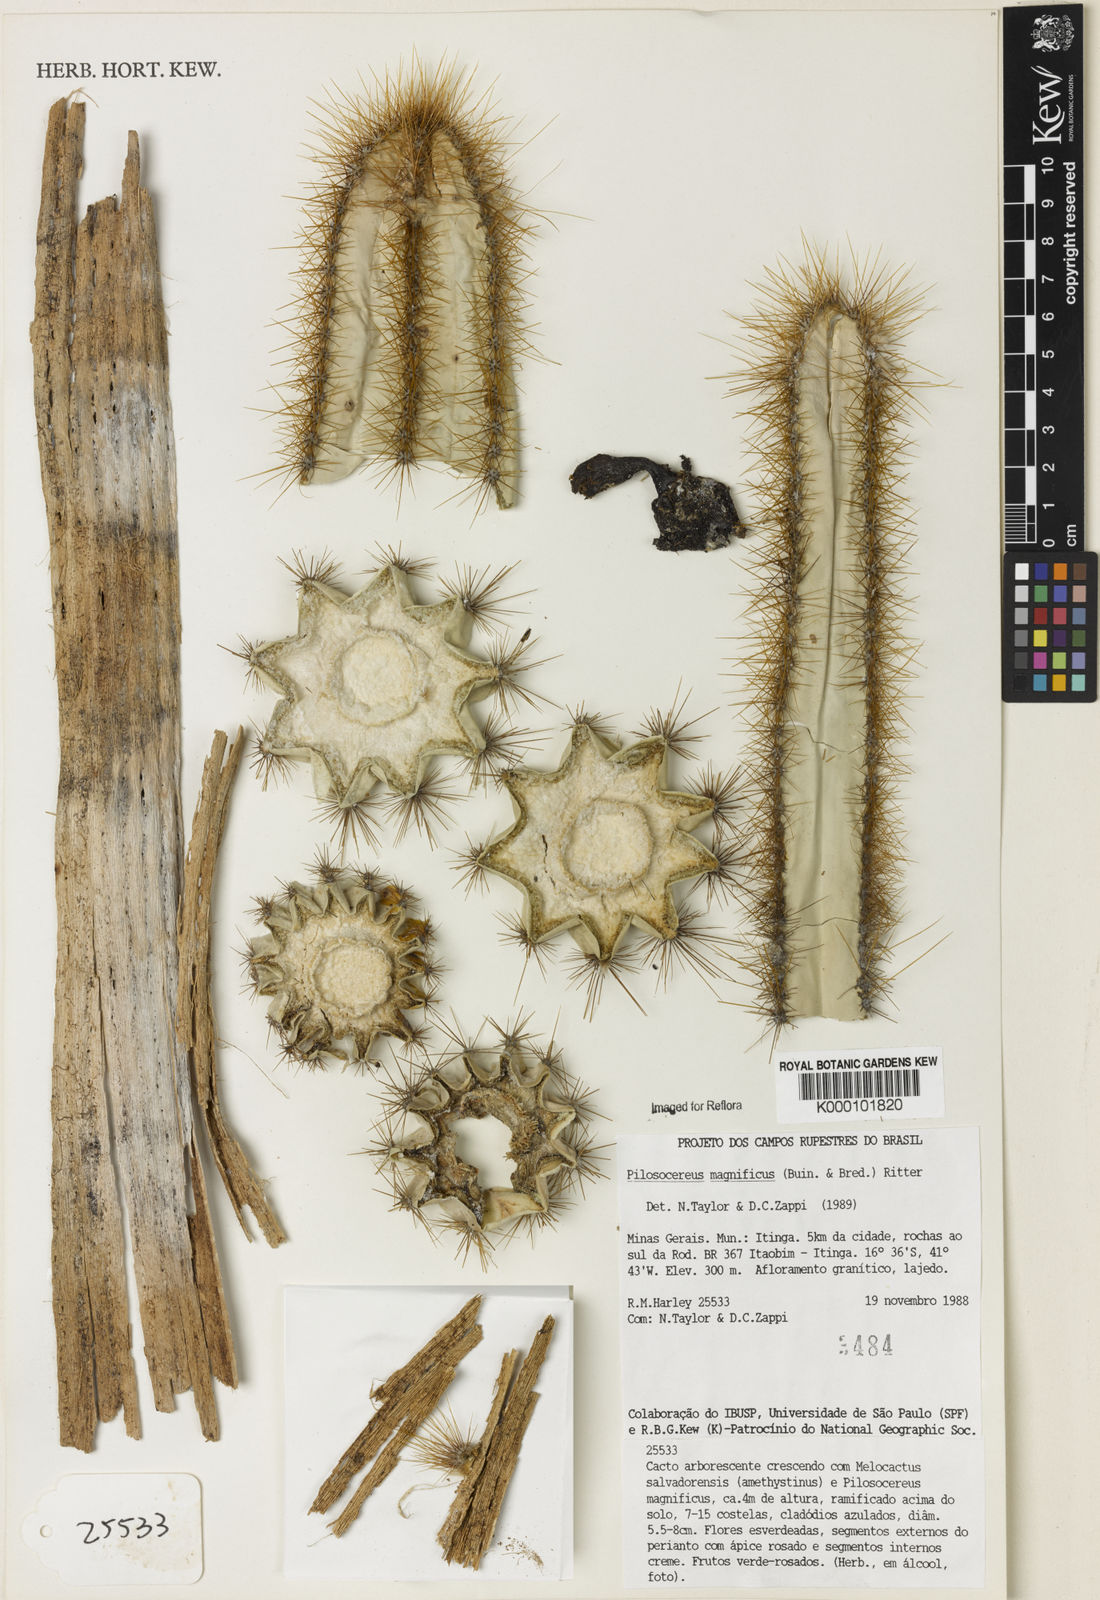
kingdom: Plantae
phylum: Tracheophyta
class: Magnoliopsida
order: Caryophyllales
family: Cactaceae
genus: Pilosocereus
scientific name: Pilosocereus
